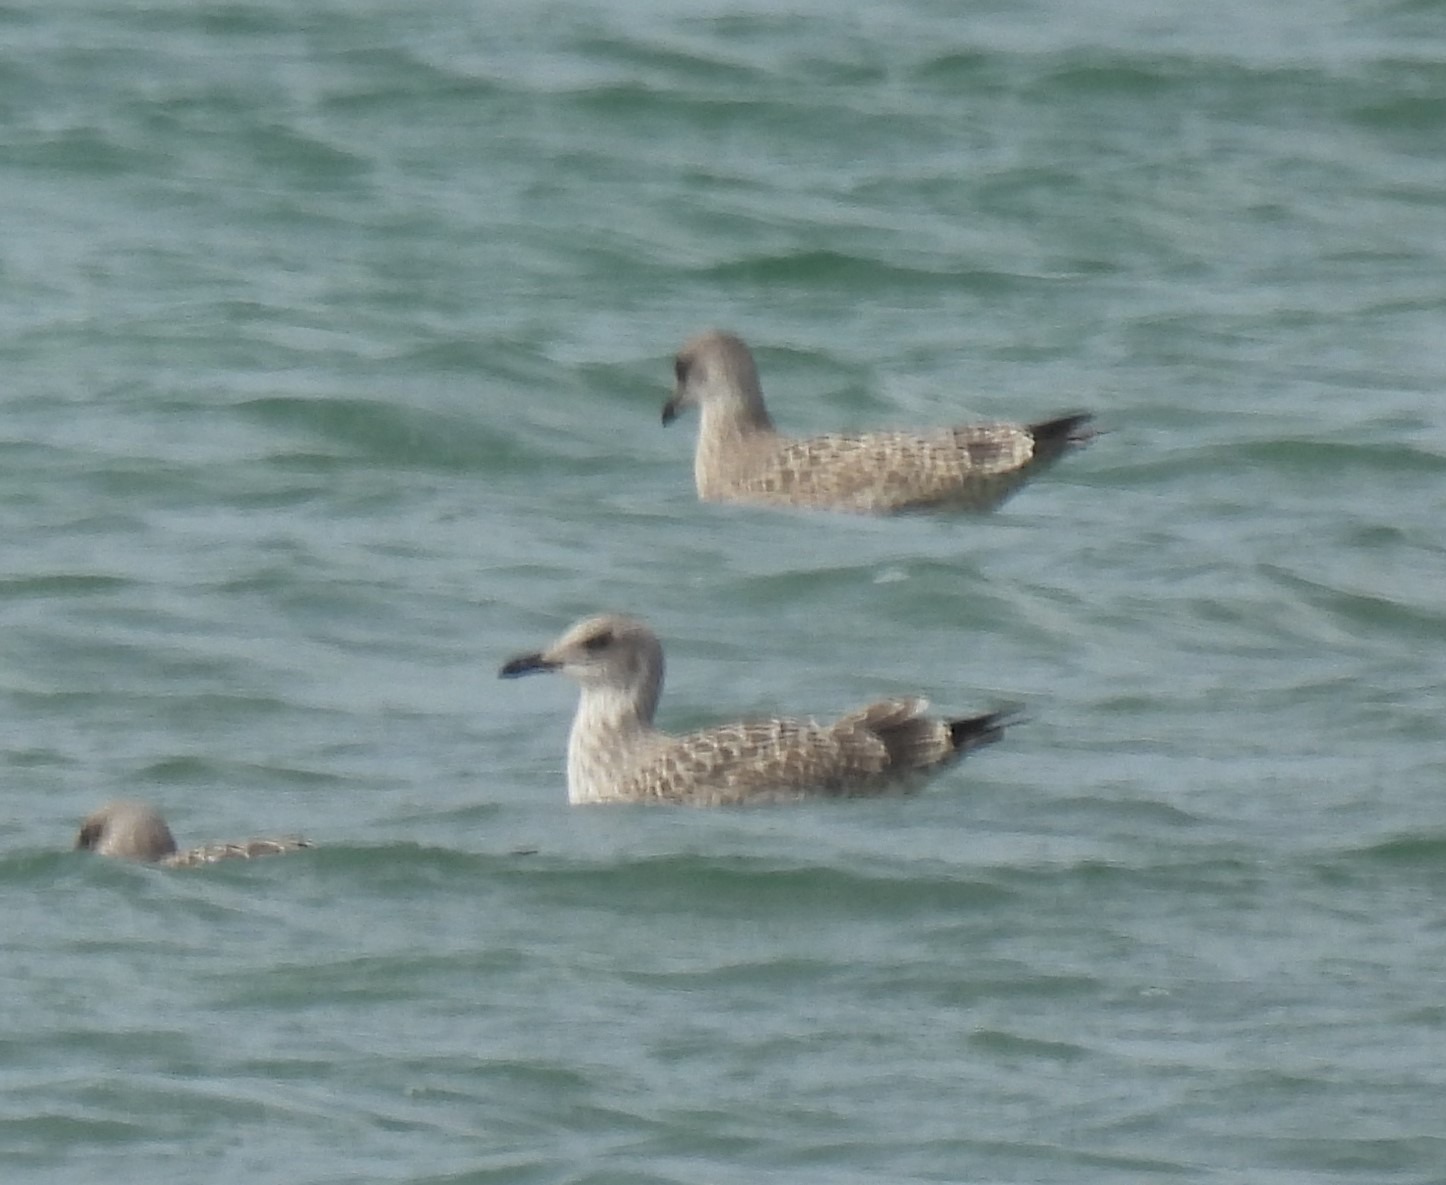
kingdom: Animalia
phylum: Chordata
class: Aves
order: Charadriiformes
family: Laridae
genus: Larus
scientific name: Larus argentatus
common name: Sølvmåge
